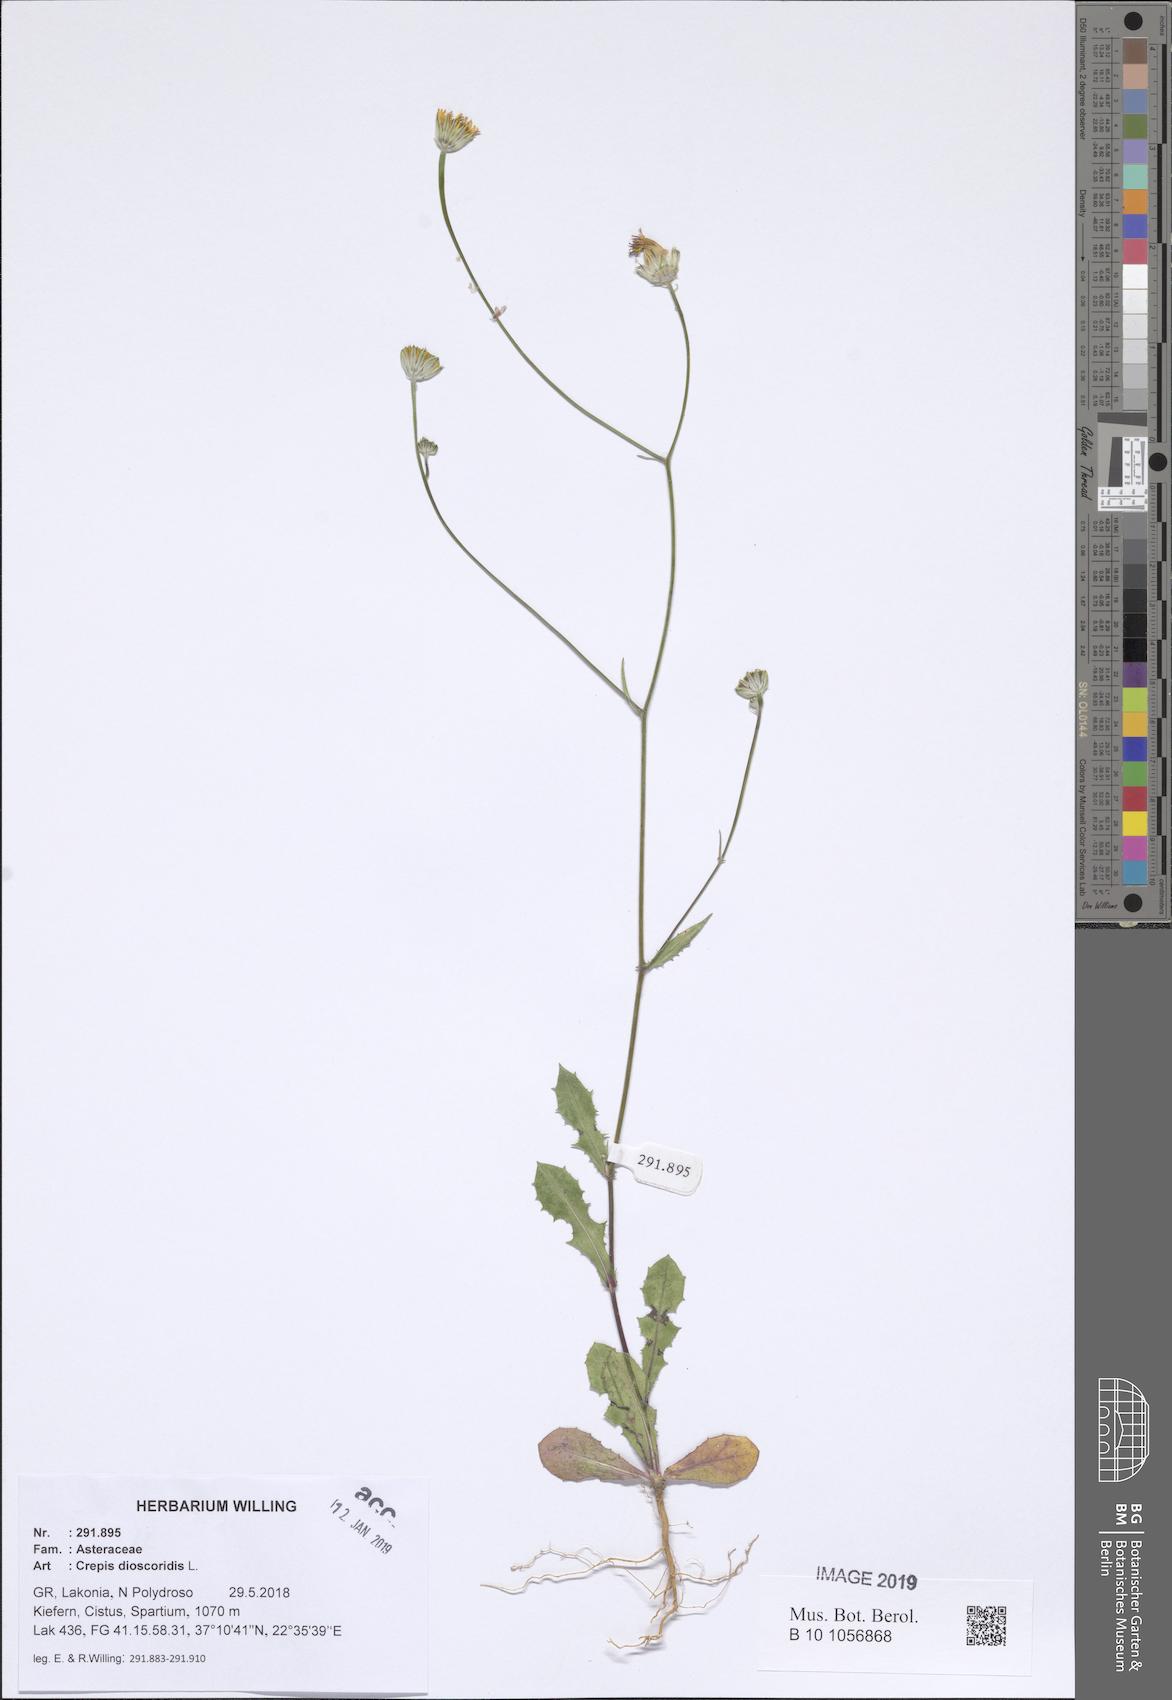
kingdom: Plantae
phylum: Tracheophyta
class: Magnoliopsida
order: Asterales
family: Asteraceae
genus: Crepis
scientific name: Crepis dioscoridis
